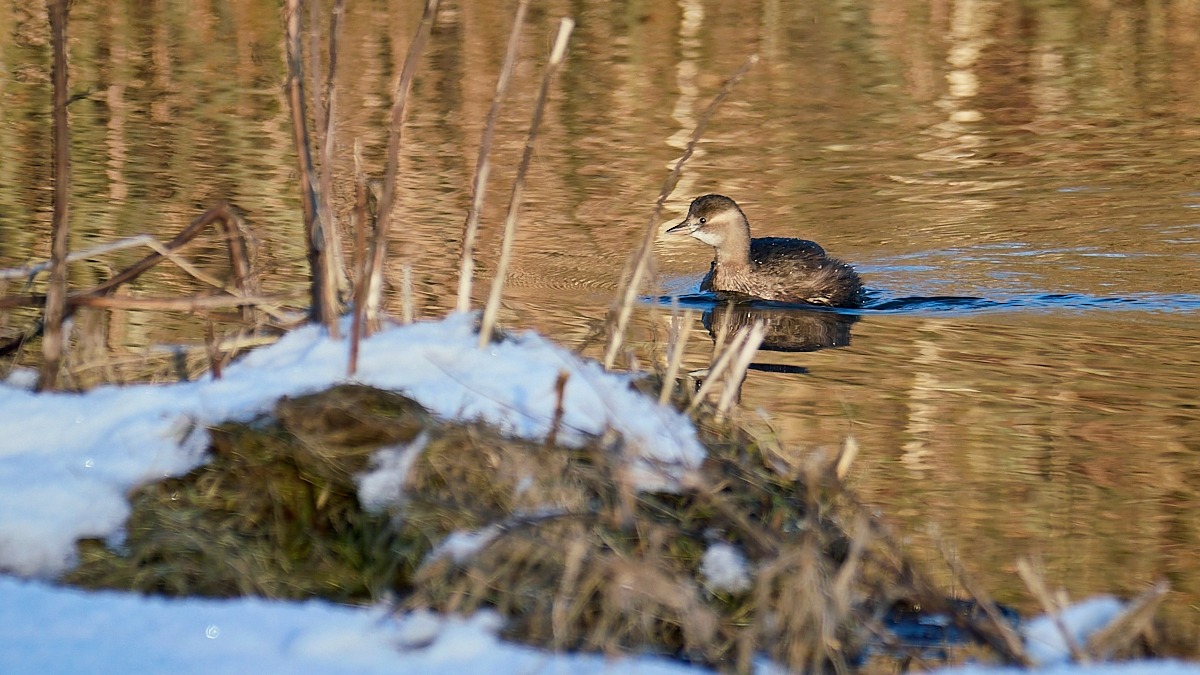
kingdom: Animalia
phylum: Chordata
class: Aves
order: Podicipediformes
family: Podicipedidae
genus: Tachybaptus
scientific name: Tachybaptus ruficollis
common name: Lille lappedykker
